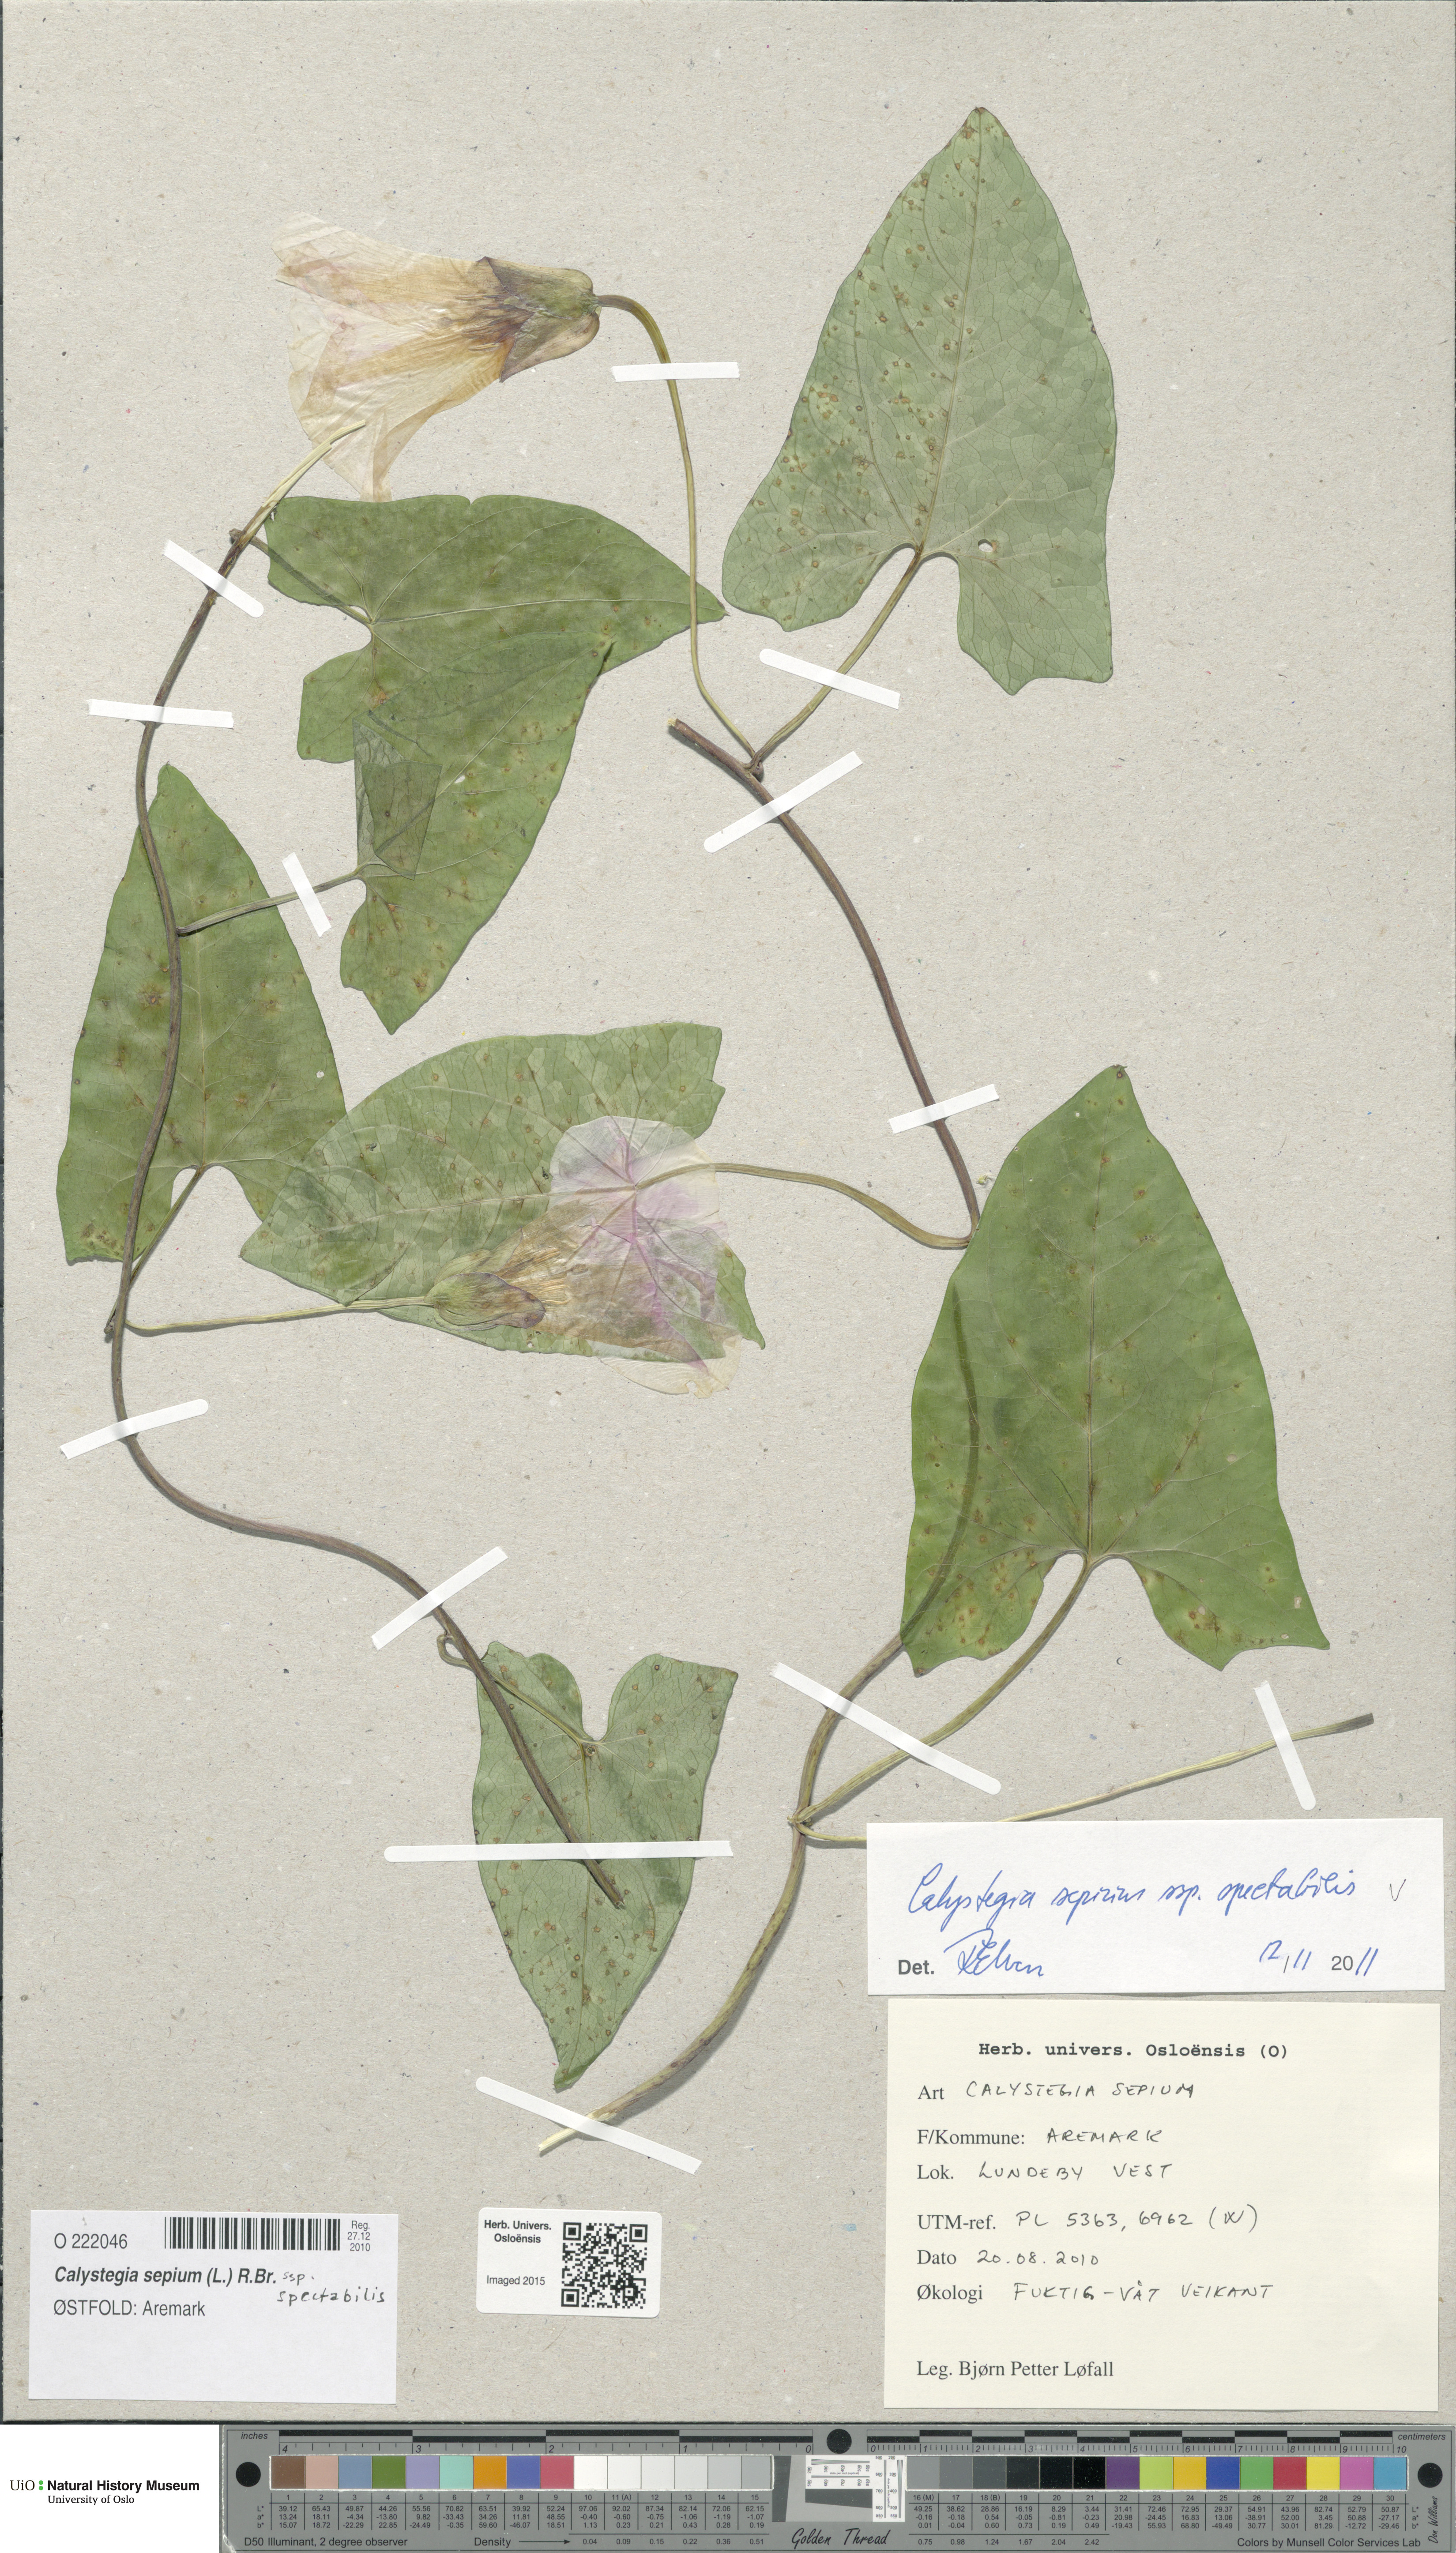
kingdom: Plantae
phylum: Tracheophyta
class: Magnoliopsida
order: Solanales
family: Convolvulaceae
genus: Calystegia
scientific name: Calystegia sepium
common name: Hedge bindweed
